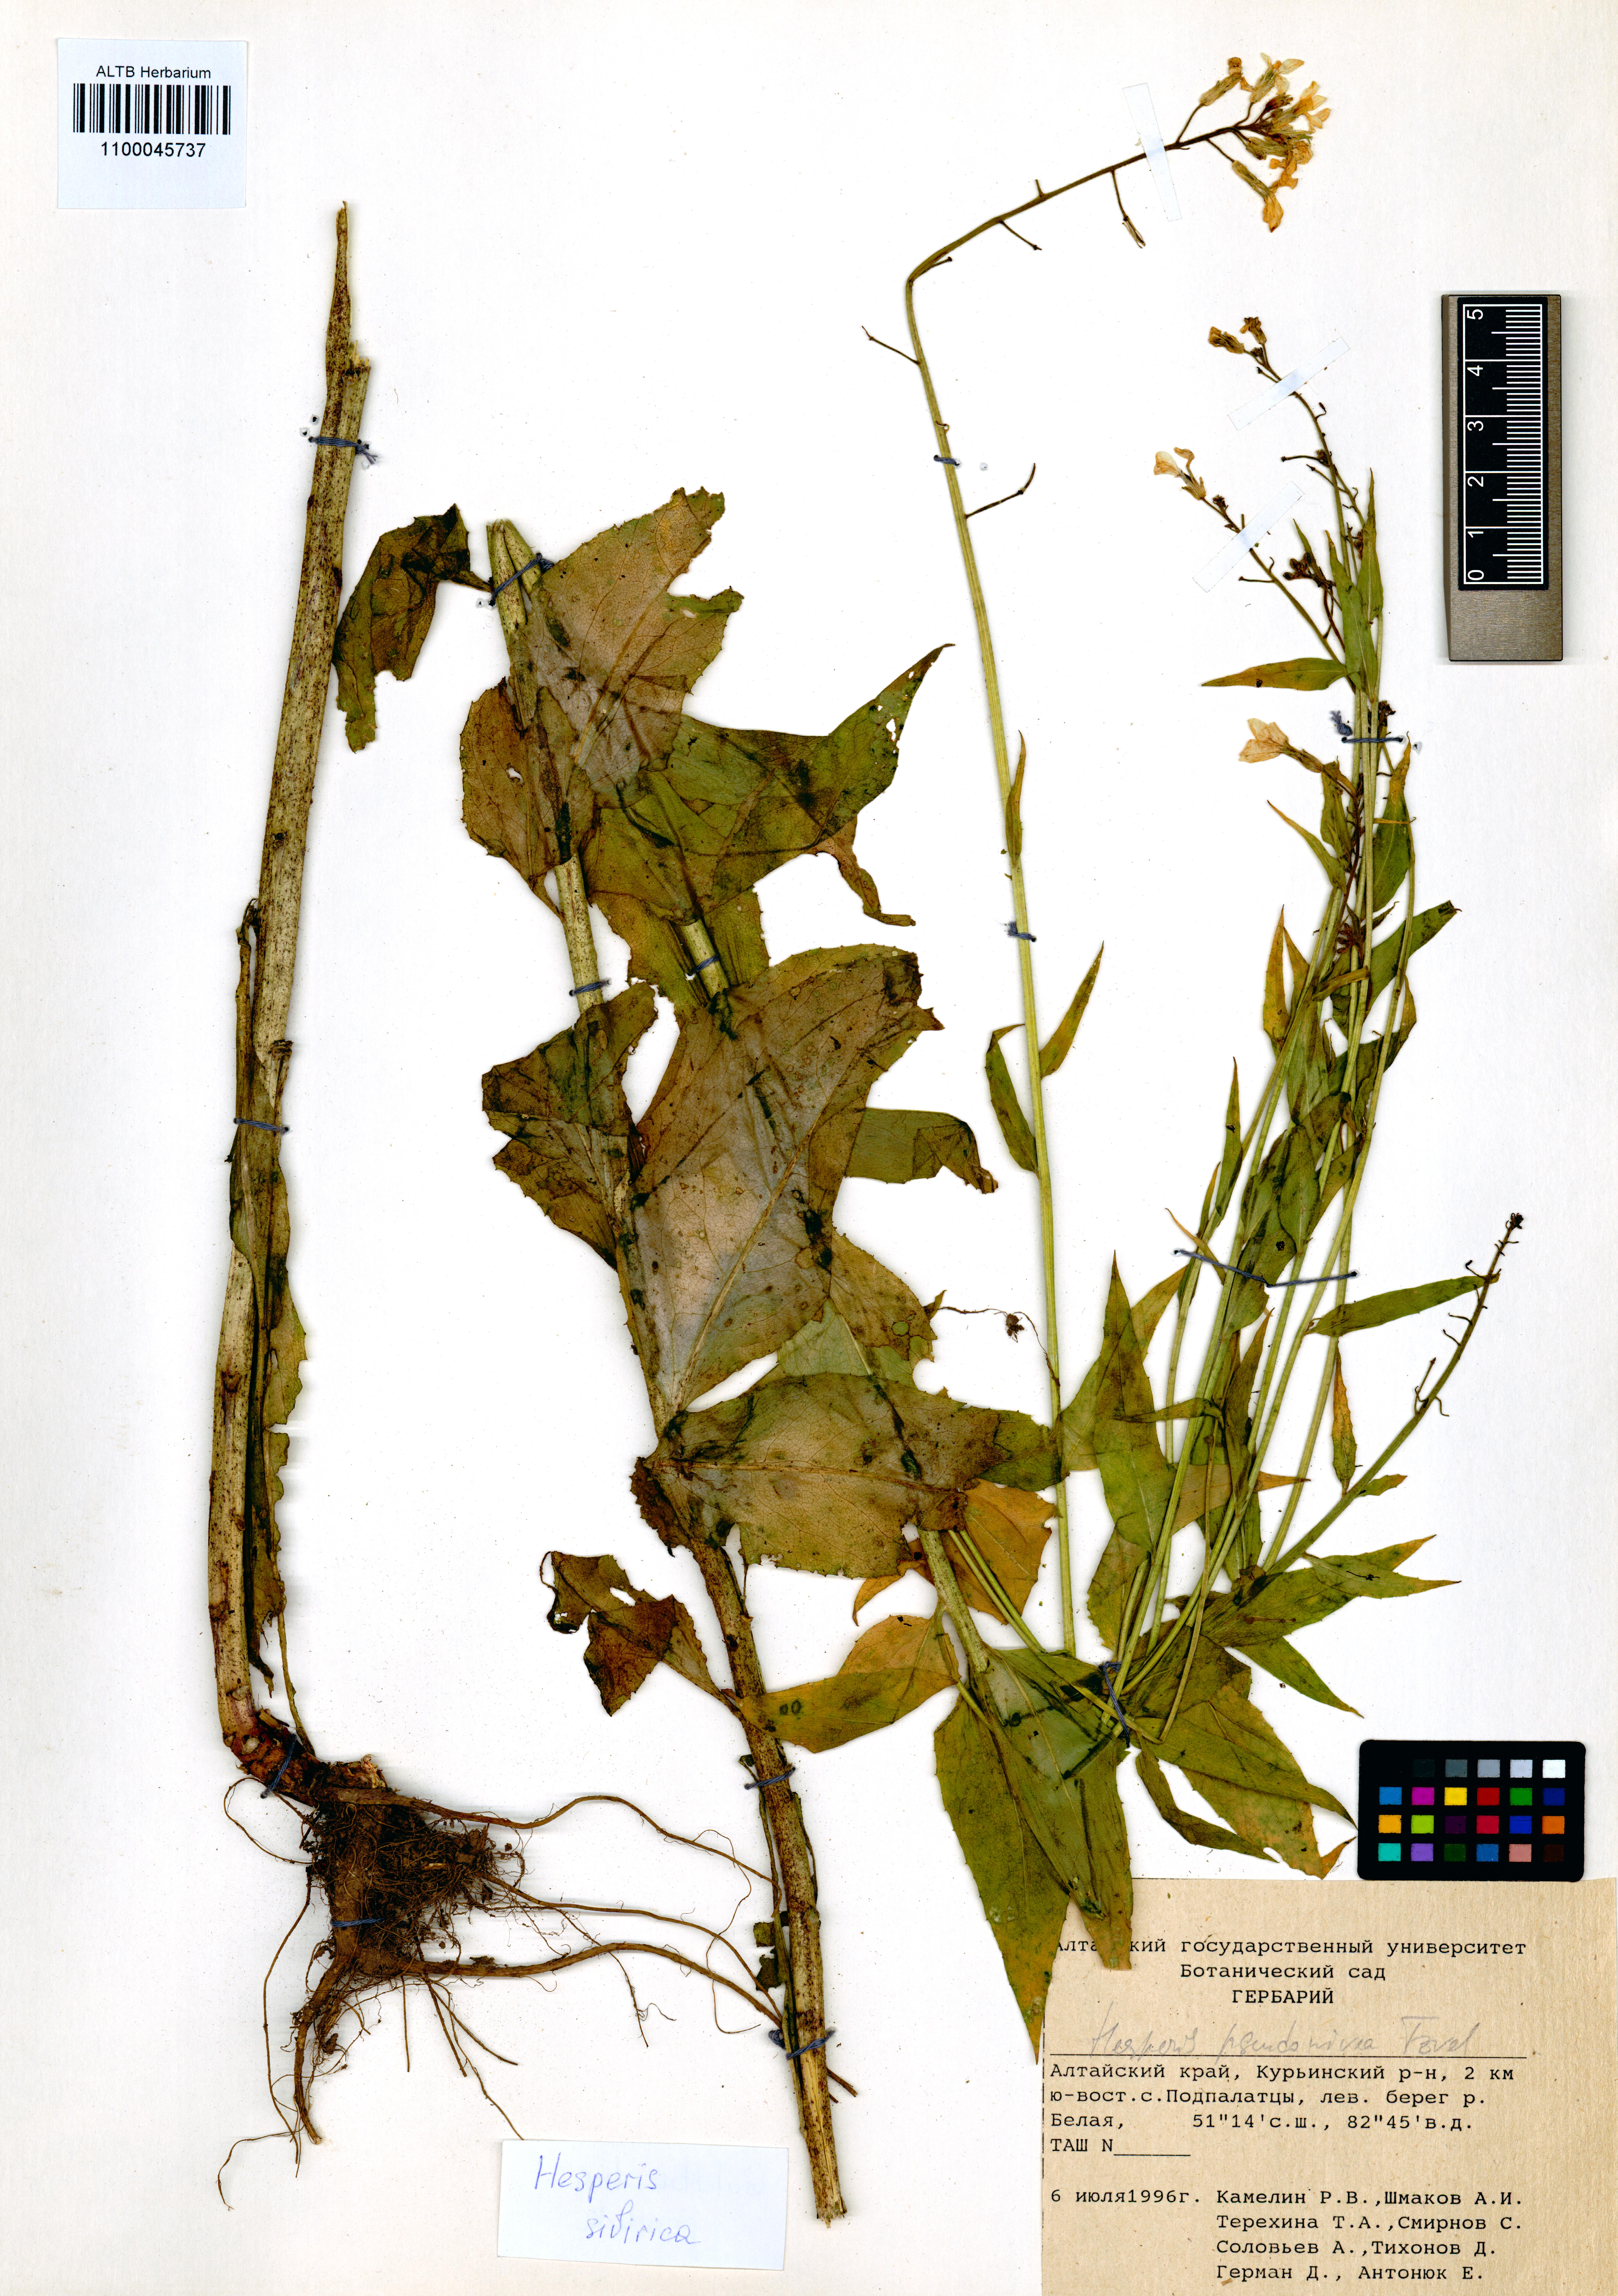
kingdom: Plantae
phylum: Tracheophyta
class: Magnoliopsida
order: Brassicales
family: Brassicaceae
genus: Hesperis
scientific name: Hesperis sibirica
